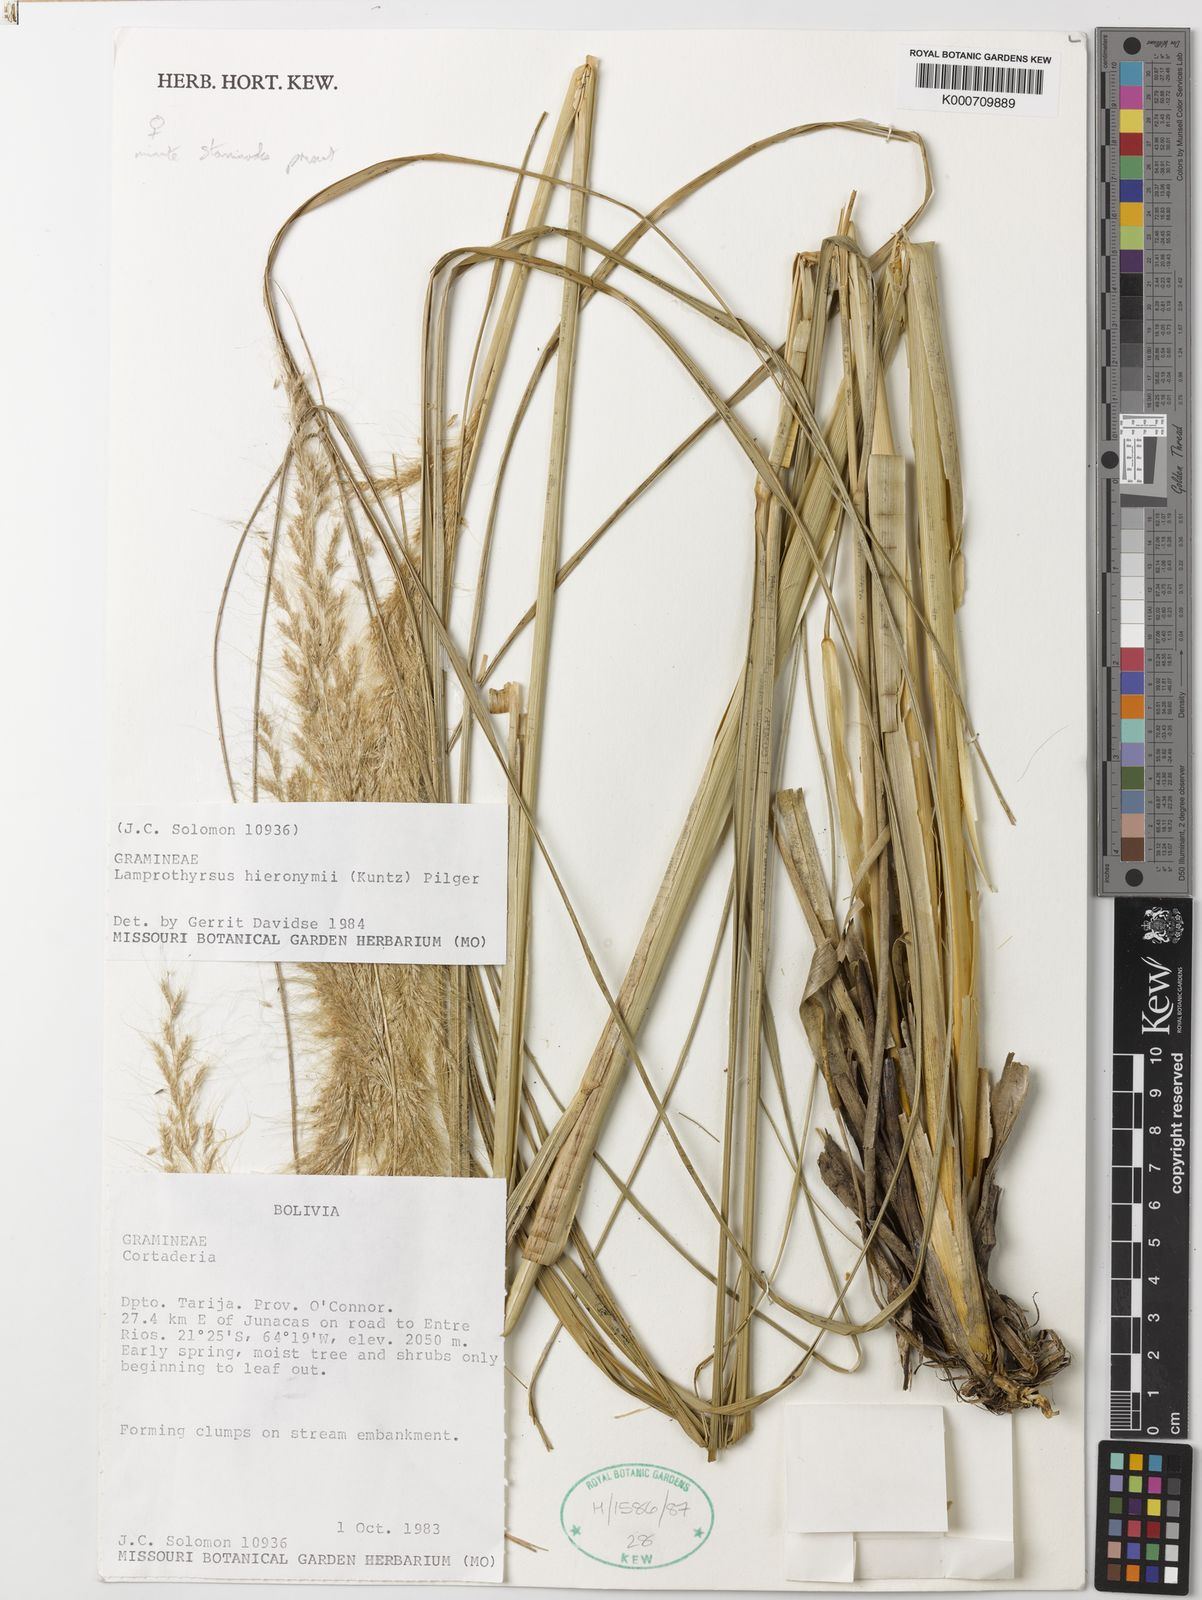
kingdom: Plantae
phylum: Tracheophyta
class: Liliopsida
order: Poales
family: Poaceae
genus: Cortaderia
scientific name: Cortaderia hieronymi
